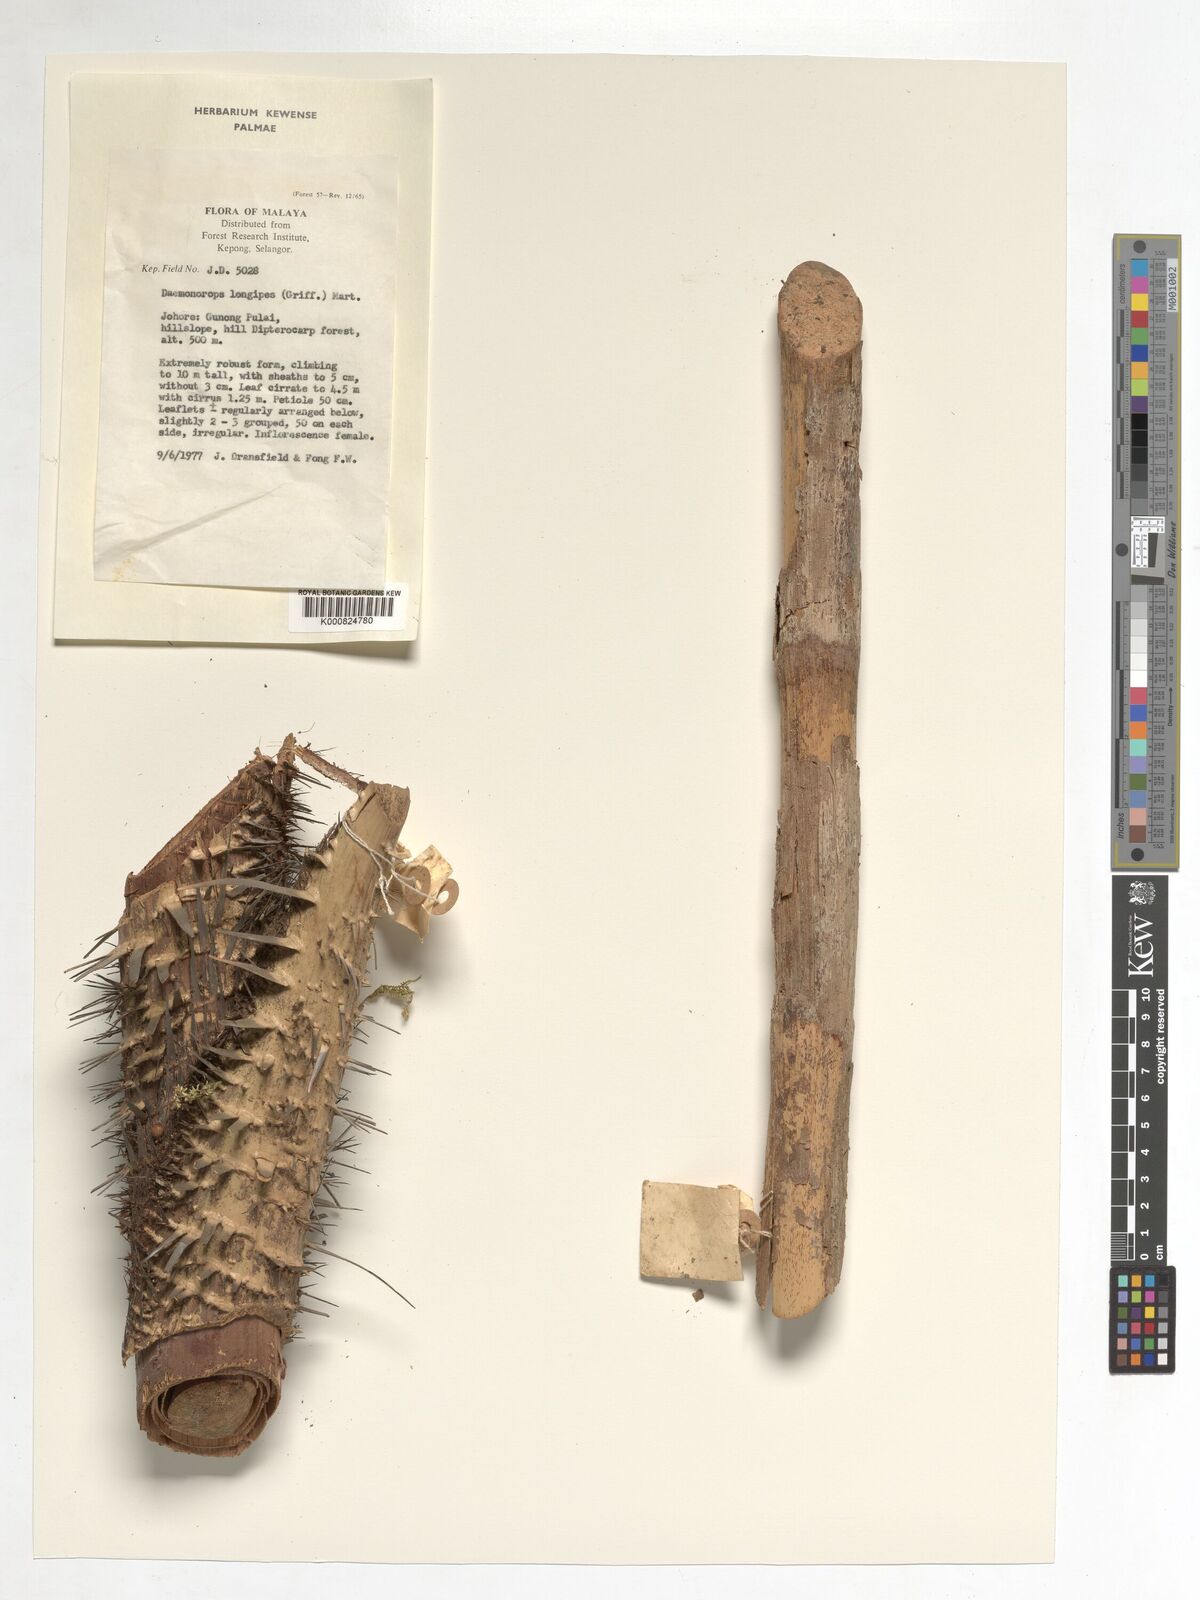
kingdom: Plantae
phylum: Tracheophyta
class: Liliopsida
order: Arecales
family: Arecaceae
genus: Calamus
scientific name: Calamus longipes
